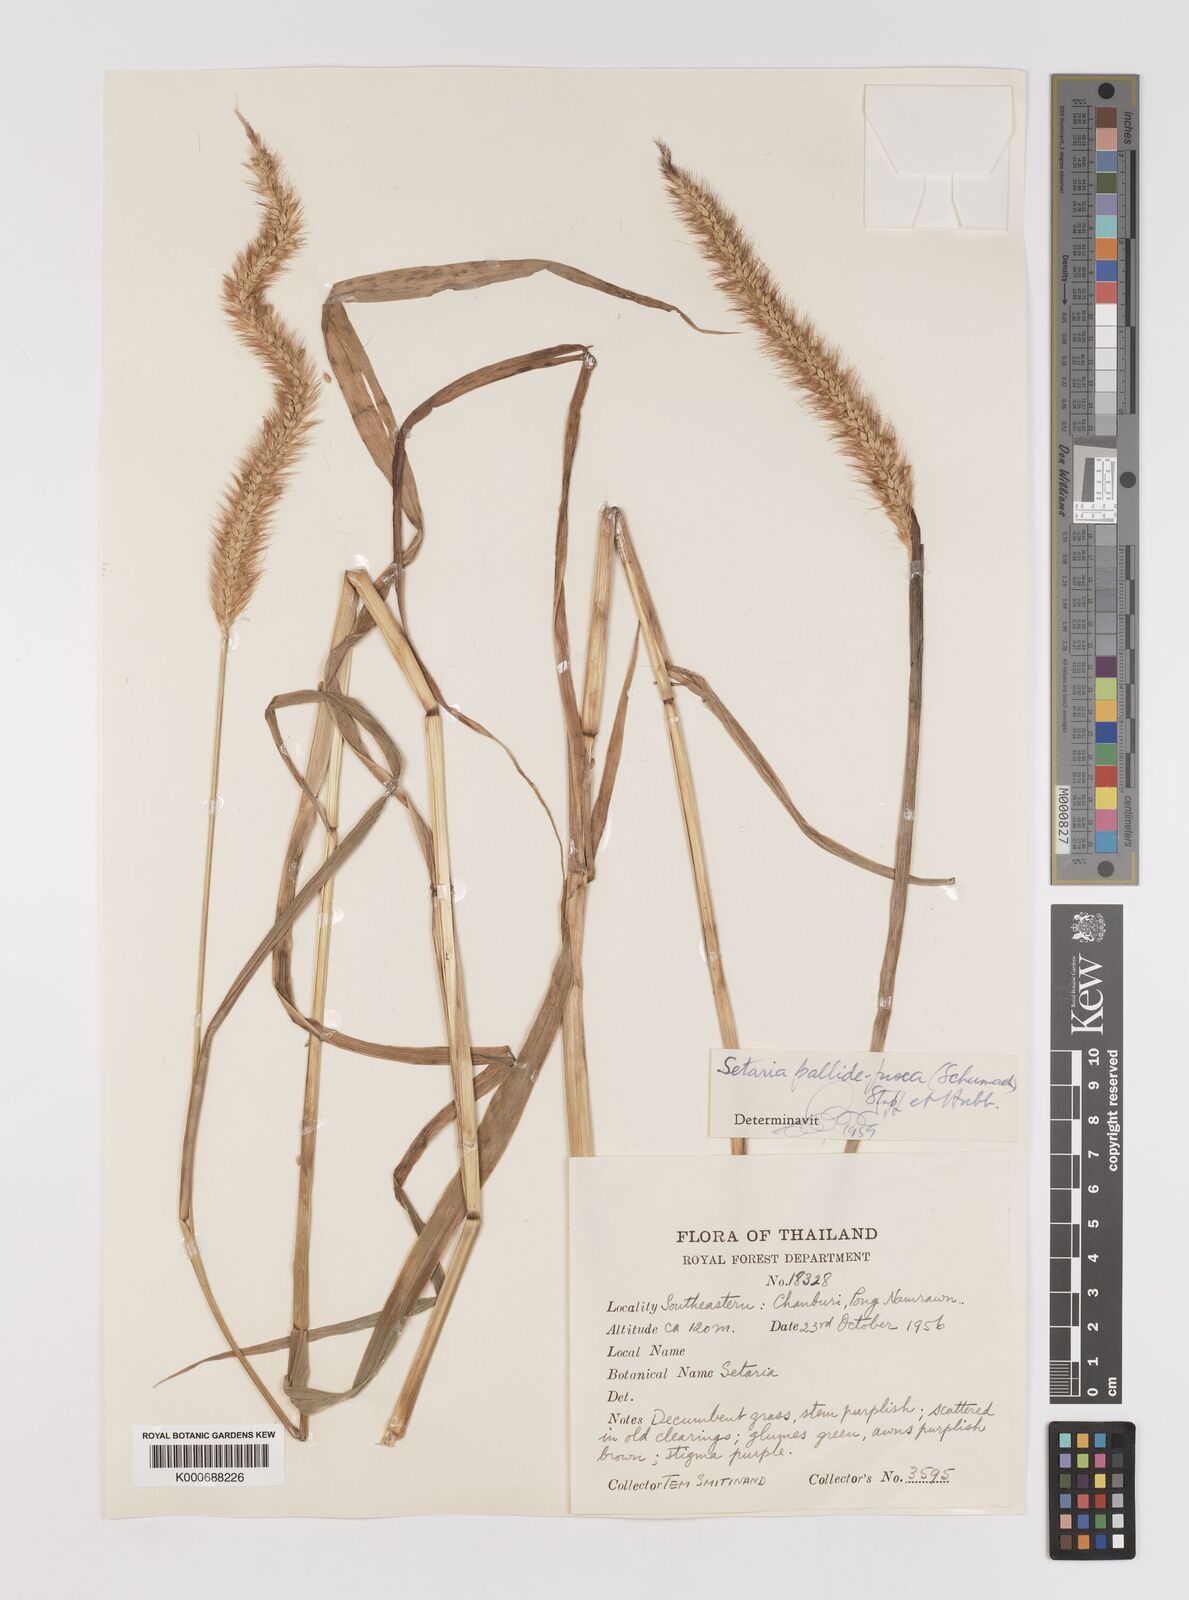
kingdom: Plantae
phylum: Tracheophyta
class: Liliopsida
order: Poales
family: Poaceae
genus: Setaria
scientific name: Setaria pumila
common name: Yellow bristle-grass
